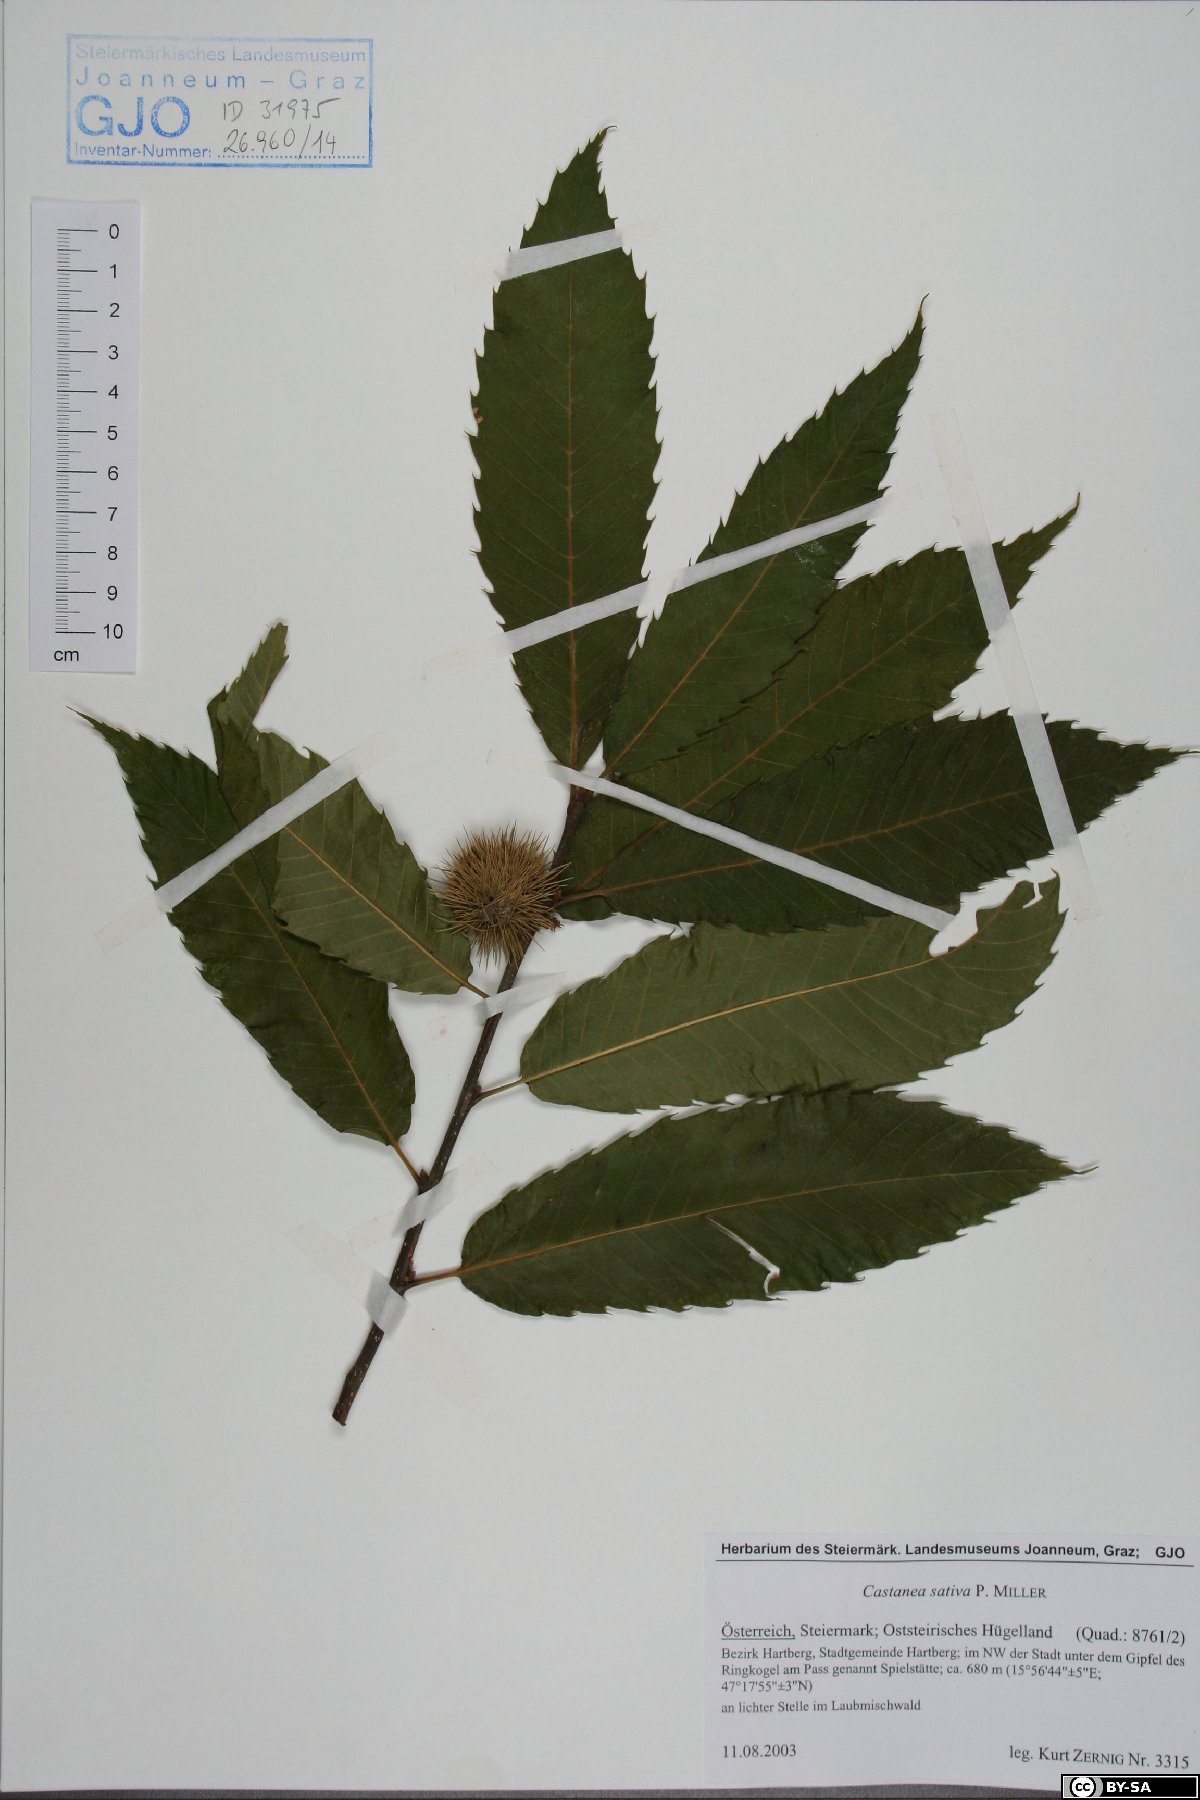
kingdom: Plantae
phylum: Tracheophyta
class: Magnoliopsida
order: Fagales
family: Fagaceae
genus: Castanea
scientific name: Castanea sativa
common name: Sweet chestnut
